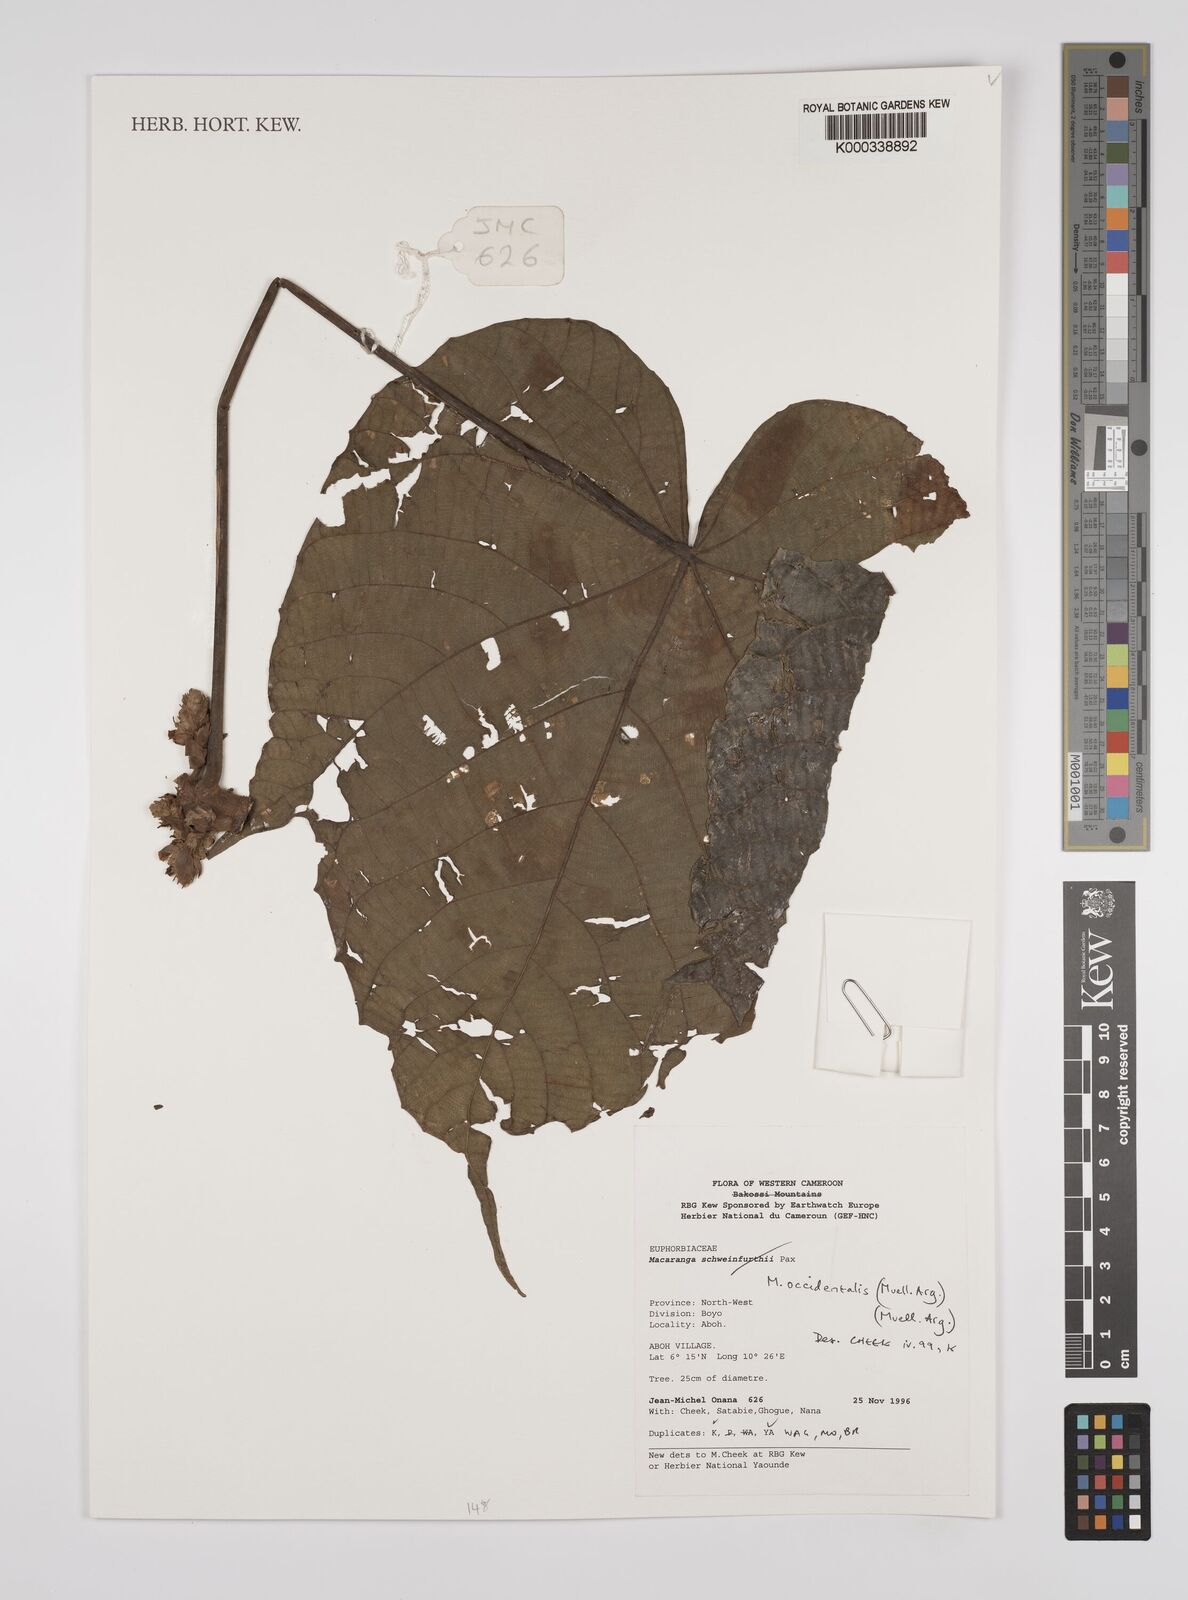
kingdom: Plantae
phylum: Tracheophyta
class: Magnoliopsida
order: Malpighiales
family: Euphorbiaceae
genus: Macaranga
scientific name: Macaranga
